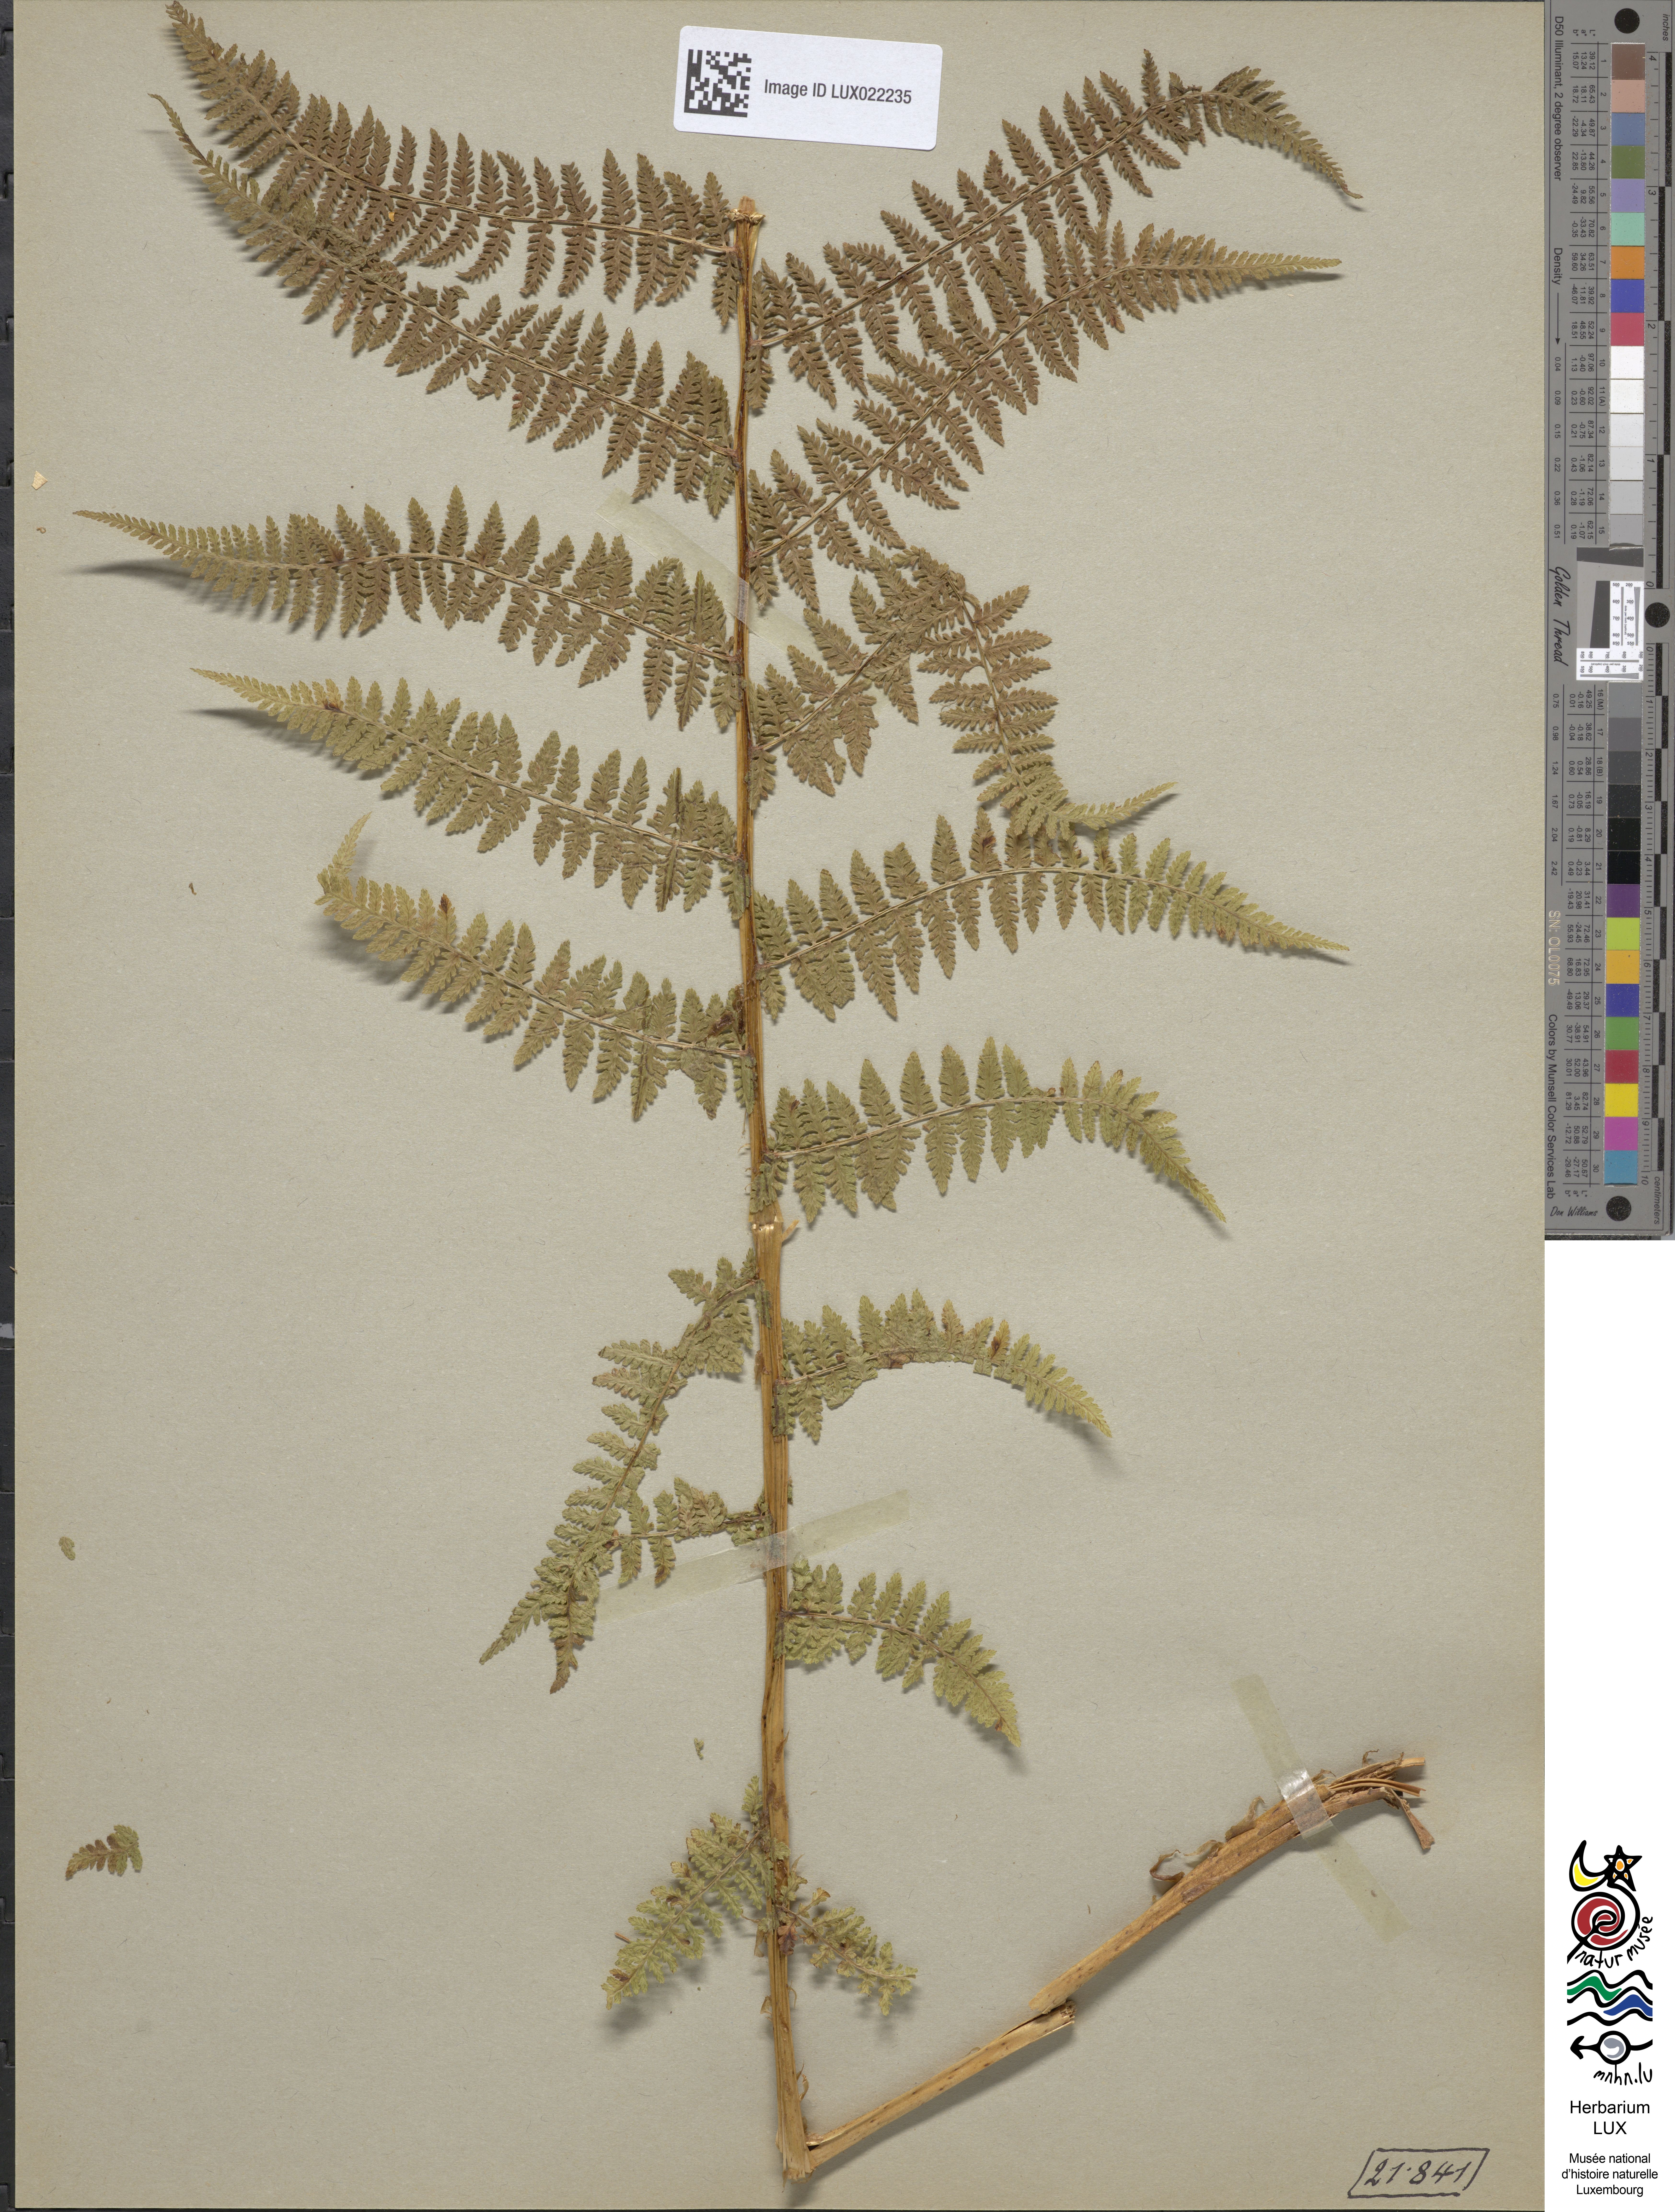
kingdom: Plantae
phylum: Tracheophyta
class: Polypodiopsida
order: Polypodiales
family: Athyriaceae
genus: Pseudathyrium
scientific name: Pseudathyrium alpestre
